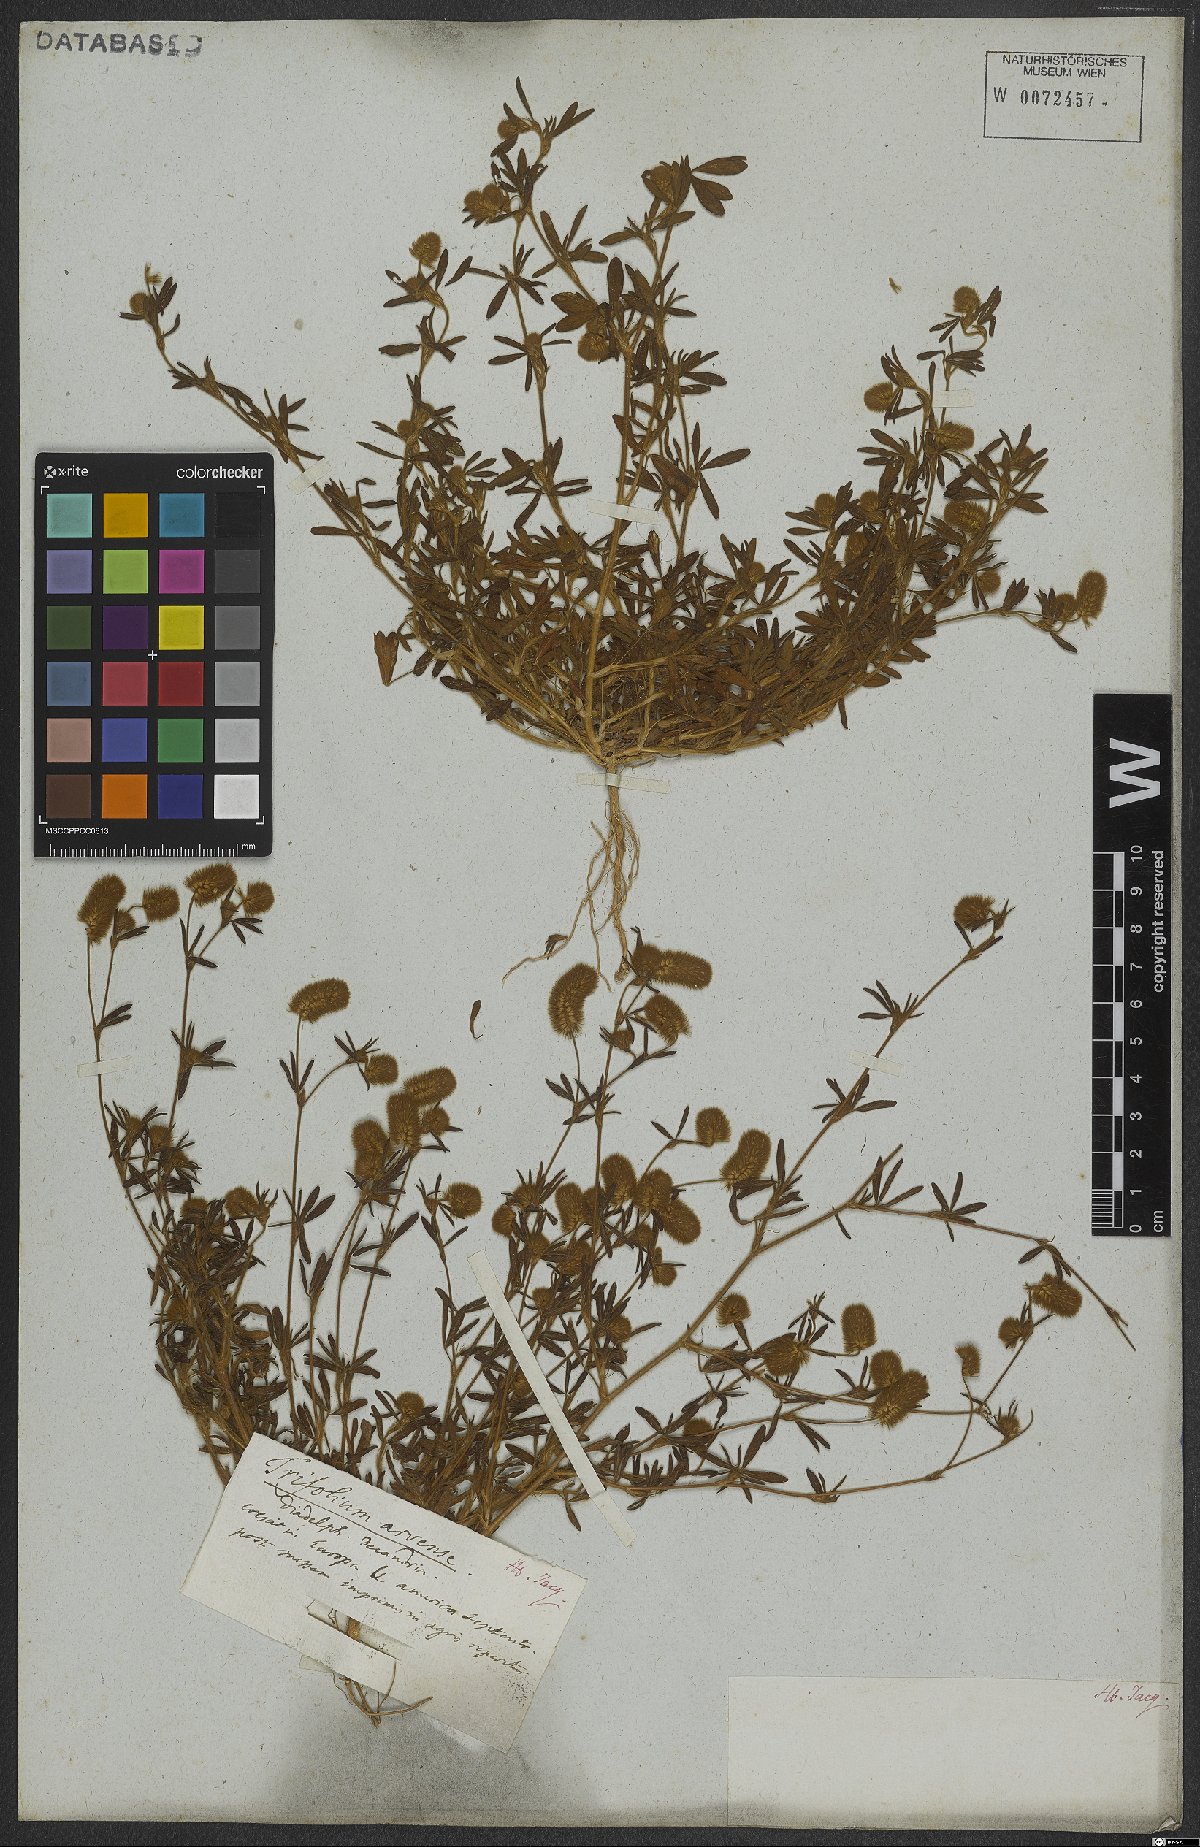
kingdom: Plantae
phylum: Tracheophyta
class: Magnoliopsida
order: Fabales
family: Fabaceae
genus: Trifolium
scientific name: Trifolium arvense
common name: Hare's-foot clover
